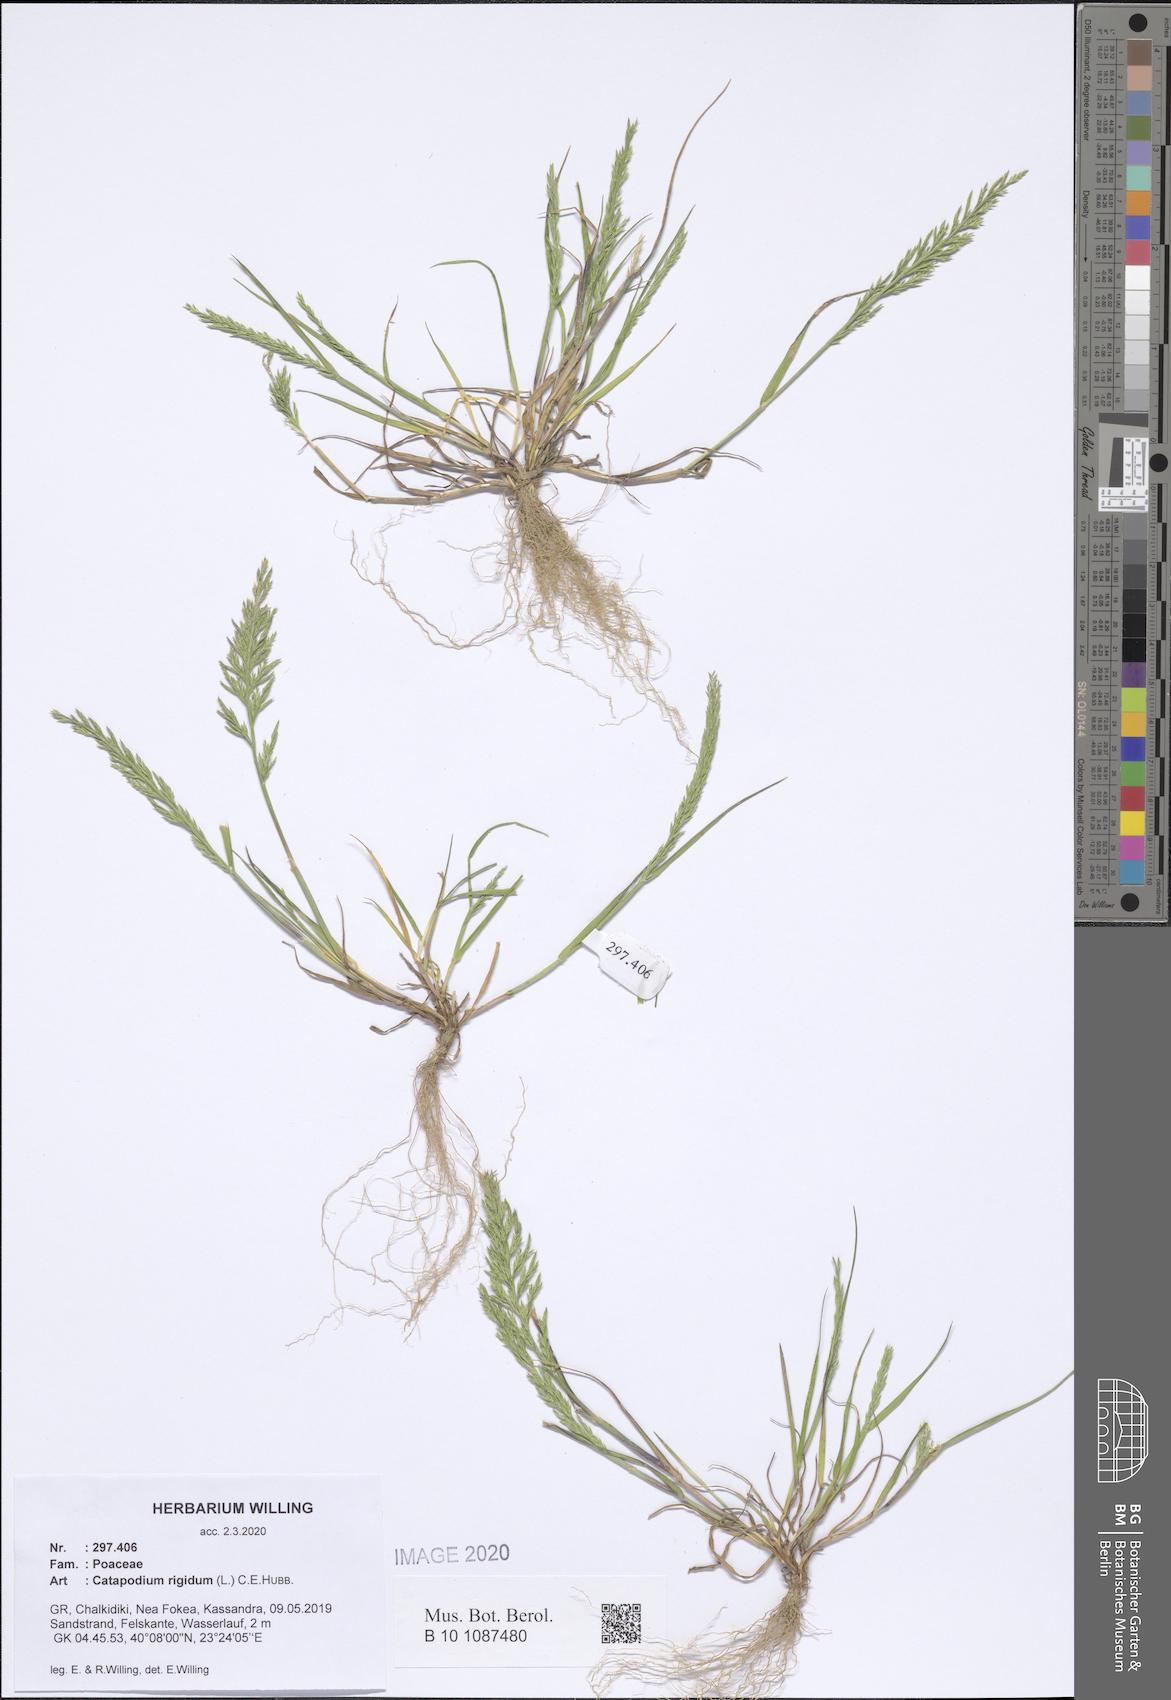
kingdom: Plantae
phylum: Tracheophyta
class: Liliopsida
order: Poales
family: Poaceae
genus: Catapodium
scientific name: Catapodium rigidum
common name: Fern-grass
